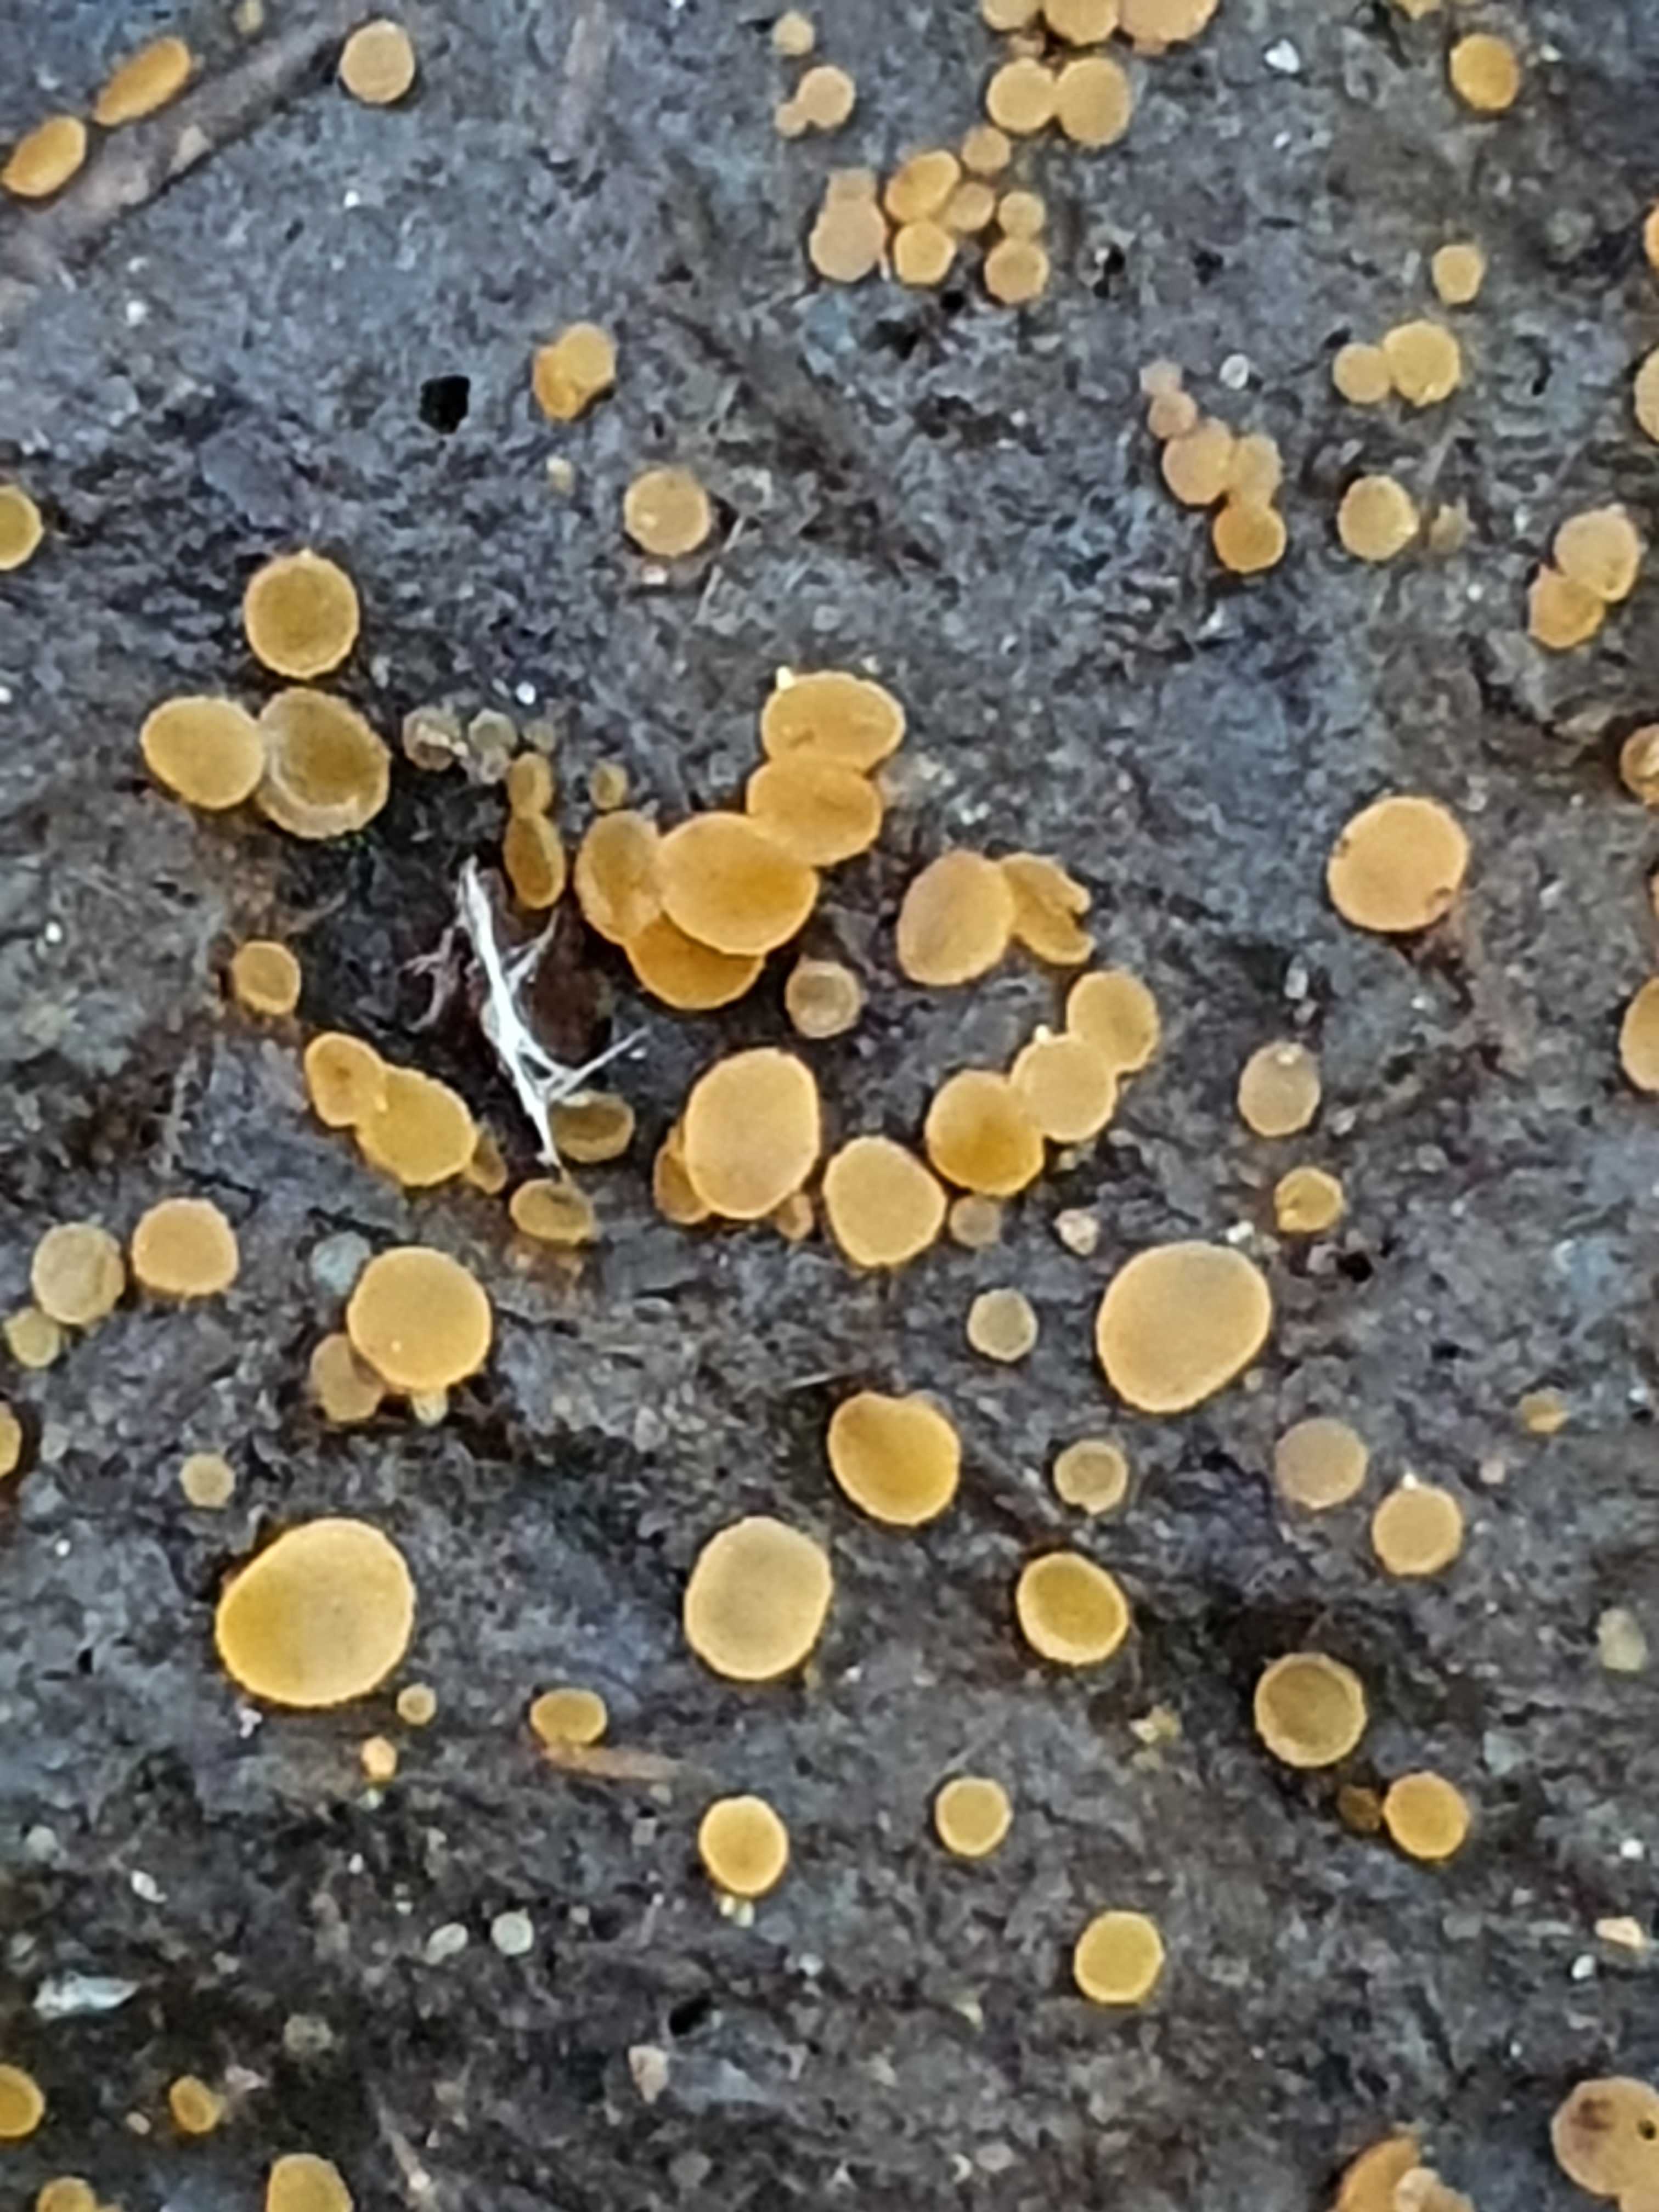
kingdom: Fungi
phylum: Ascomycota
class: Pezizomycetes
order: Pezizales
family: Pyronemataceae
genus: Cheilymenia
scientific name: Cheilymenia granulata
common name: møgbæger
